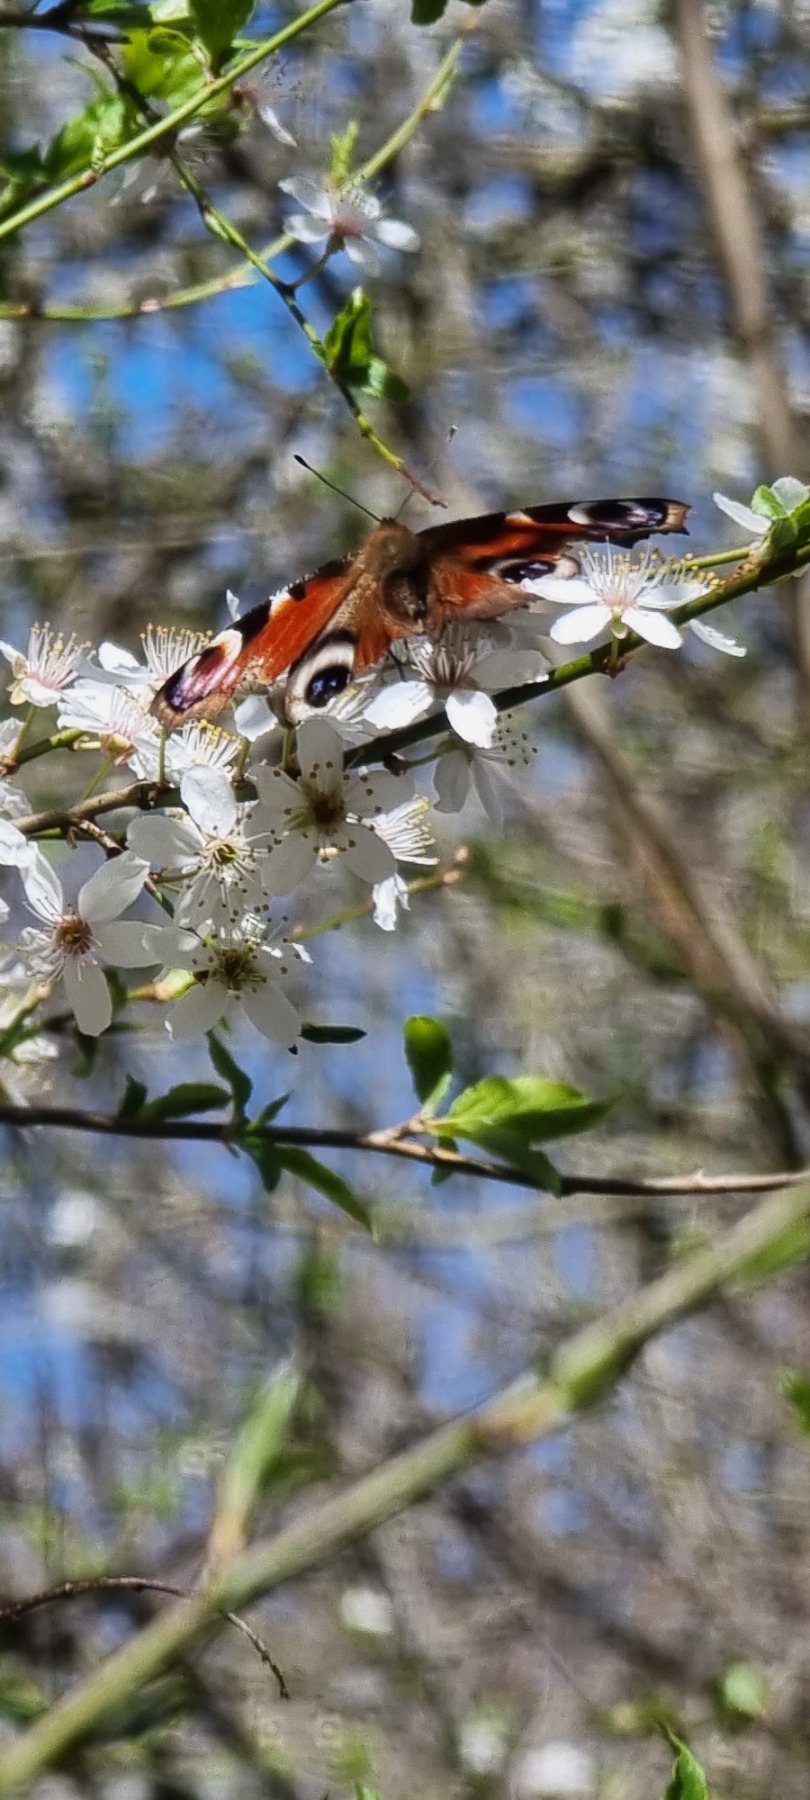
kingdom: Animalia
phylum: Arthropoda
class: Insecta
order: Lepidoptera
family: Nymphalidae
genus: Aglais
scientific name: Aglais io
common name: Dagpåfugleøje
